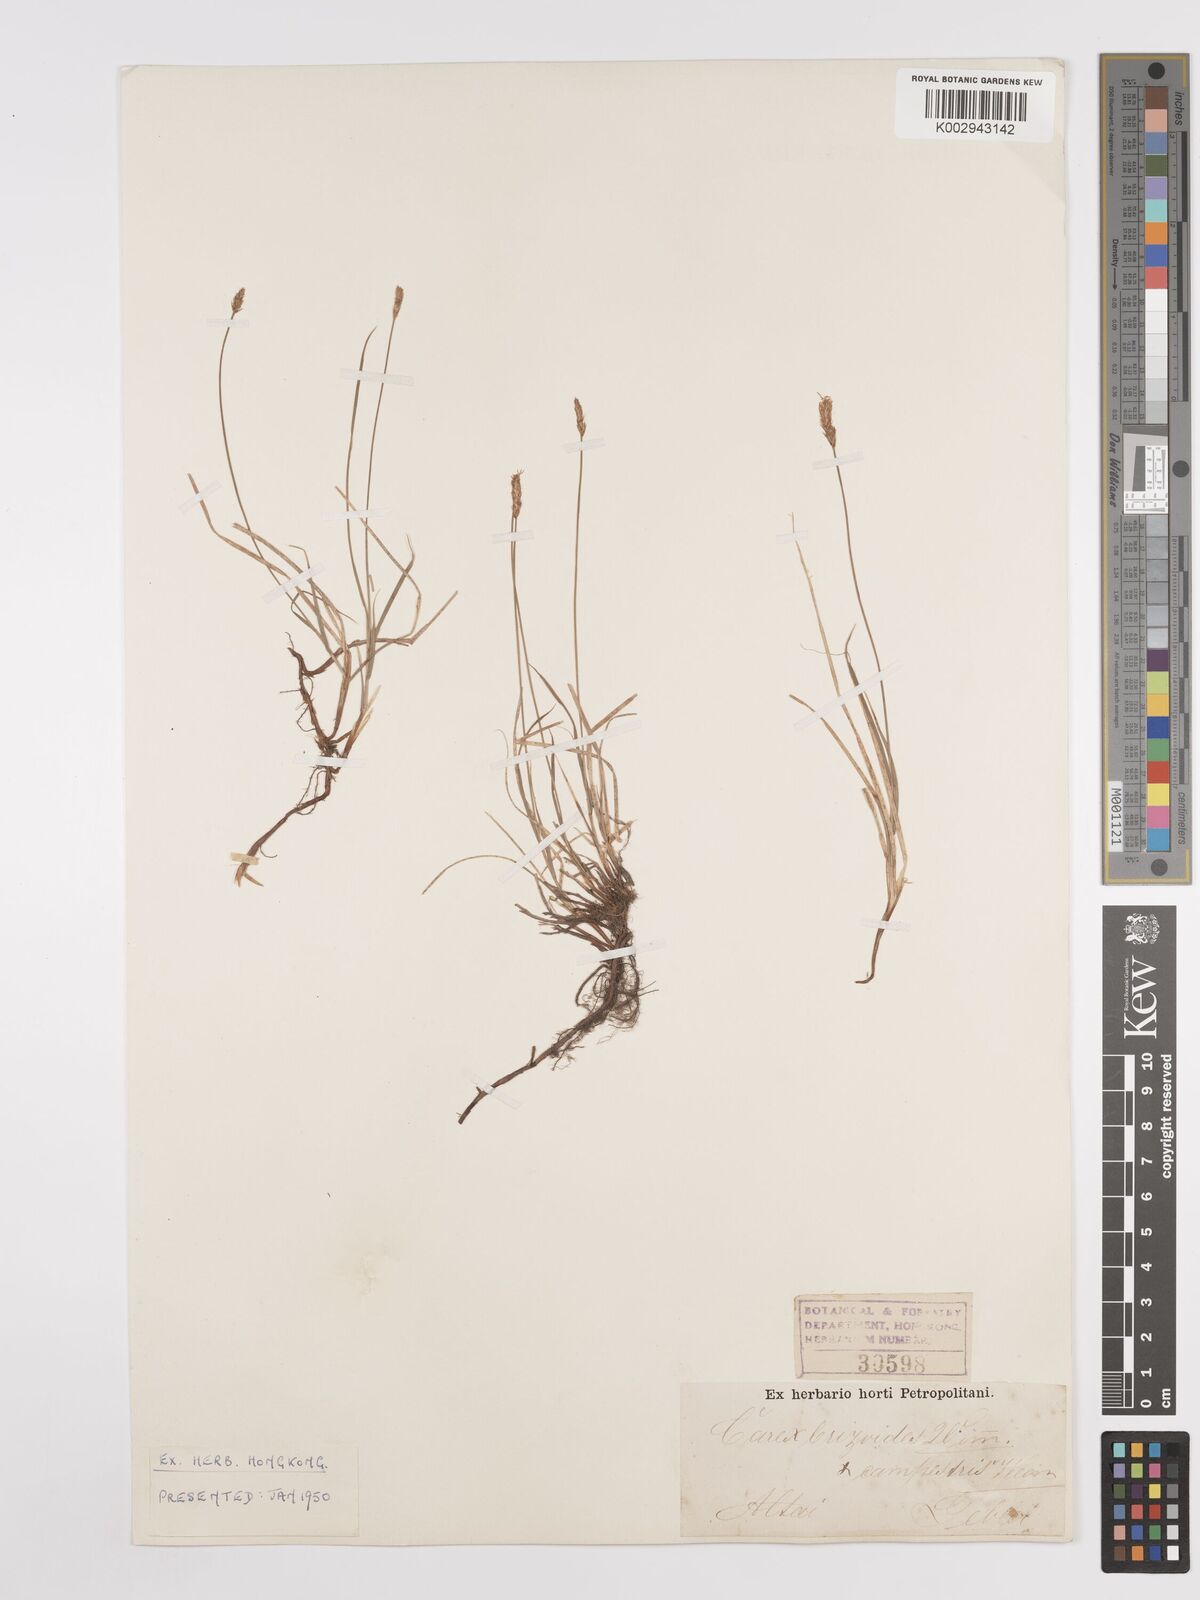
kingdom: Plantae
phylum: Tracheophyta
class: Liliopsida
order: Poales
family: Cyperaceae
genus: Carex
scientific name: Carex
